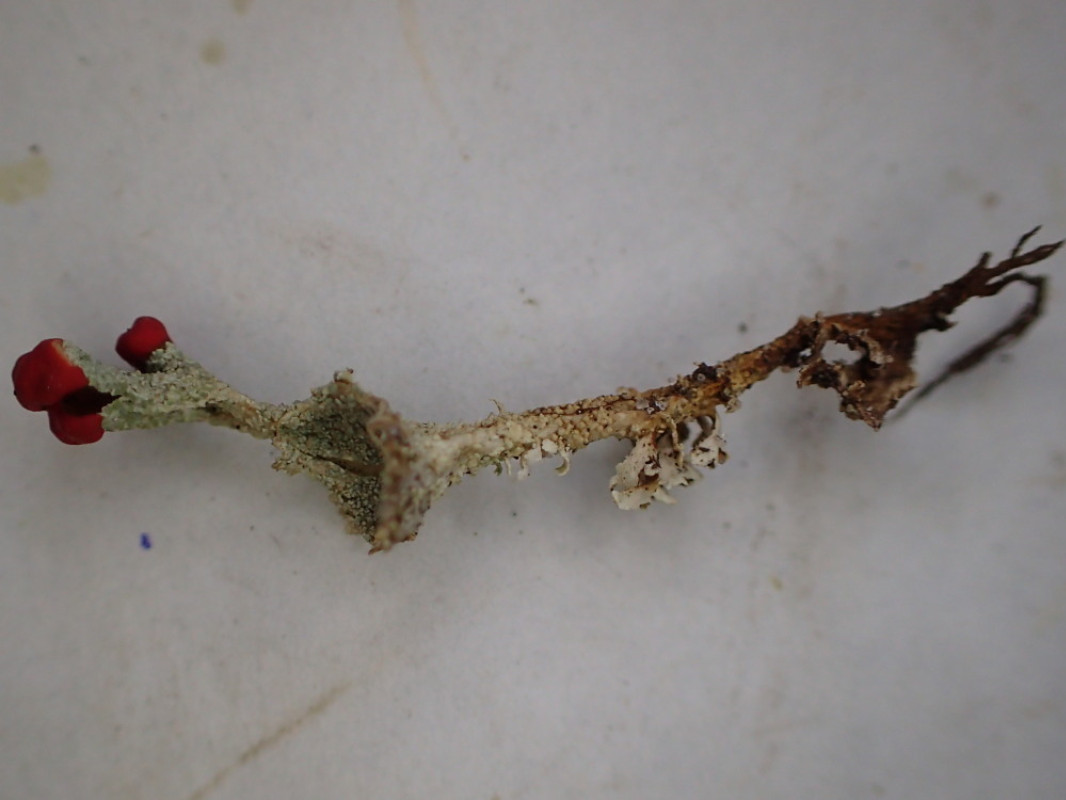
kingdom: Fungi
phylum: Ascomycota
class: Lecanoromycetes
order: Lecanorales
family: Cladoniaceae
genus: Cladonia
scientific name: Cladonia diversa
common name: rød bægerlav
